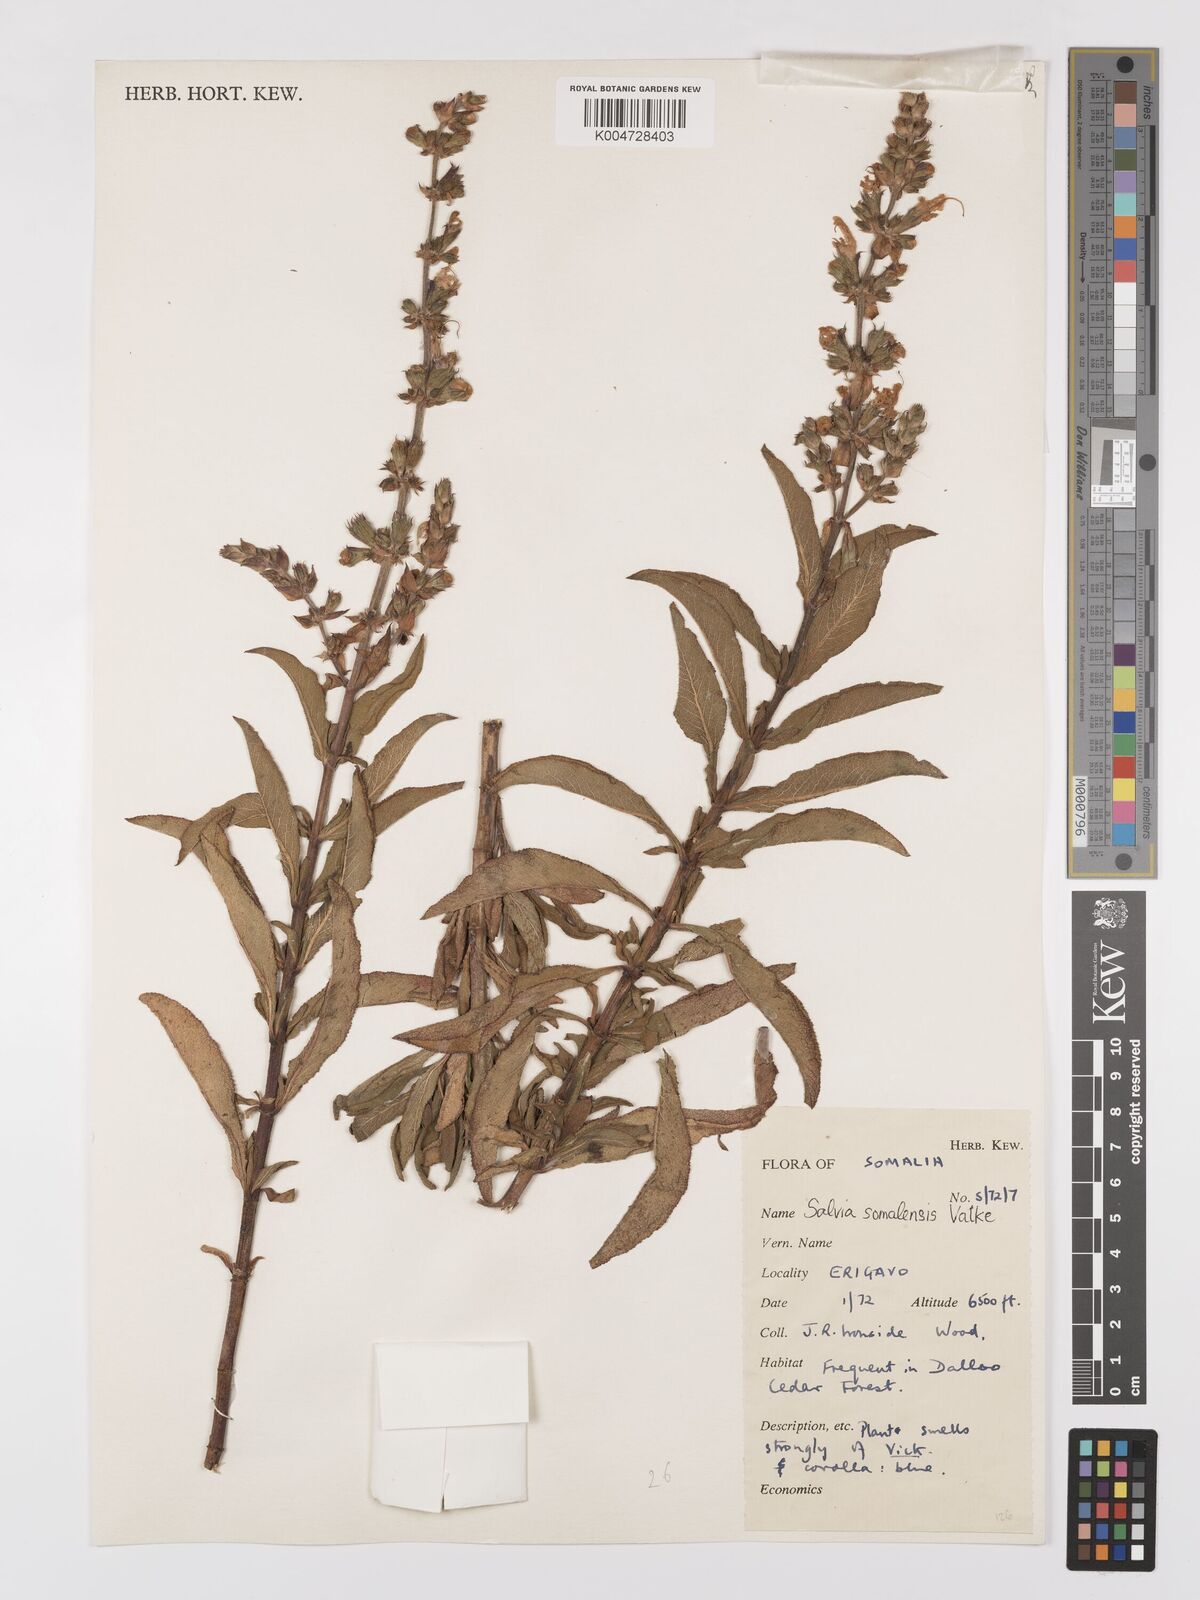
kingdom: Plantae
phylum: Tracheophyta
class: Magnoliopsida
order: Lamiales
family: Lamiaceae
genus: Salvia
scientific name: Salvia somalensis
